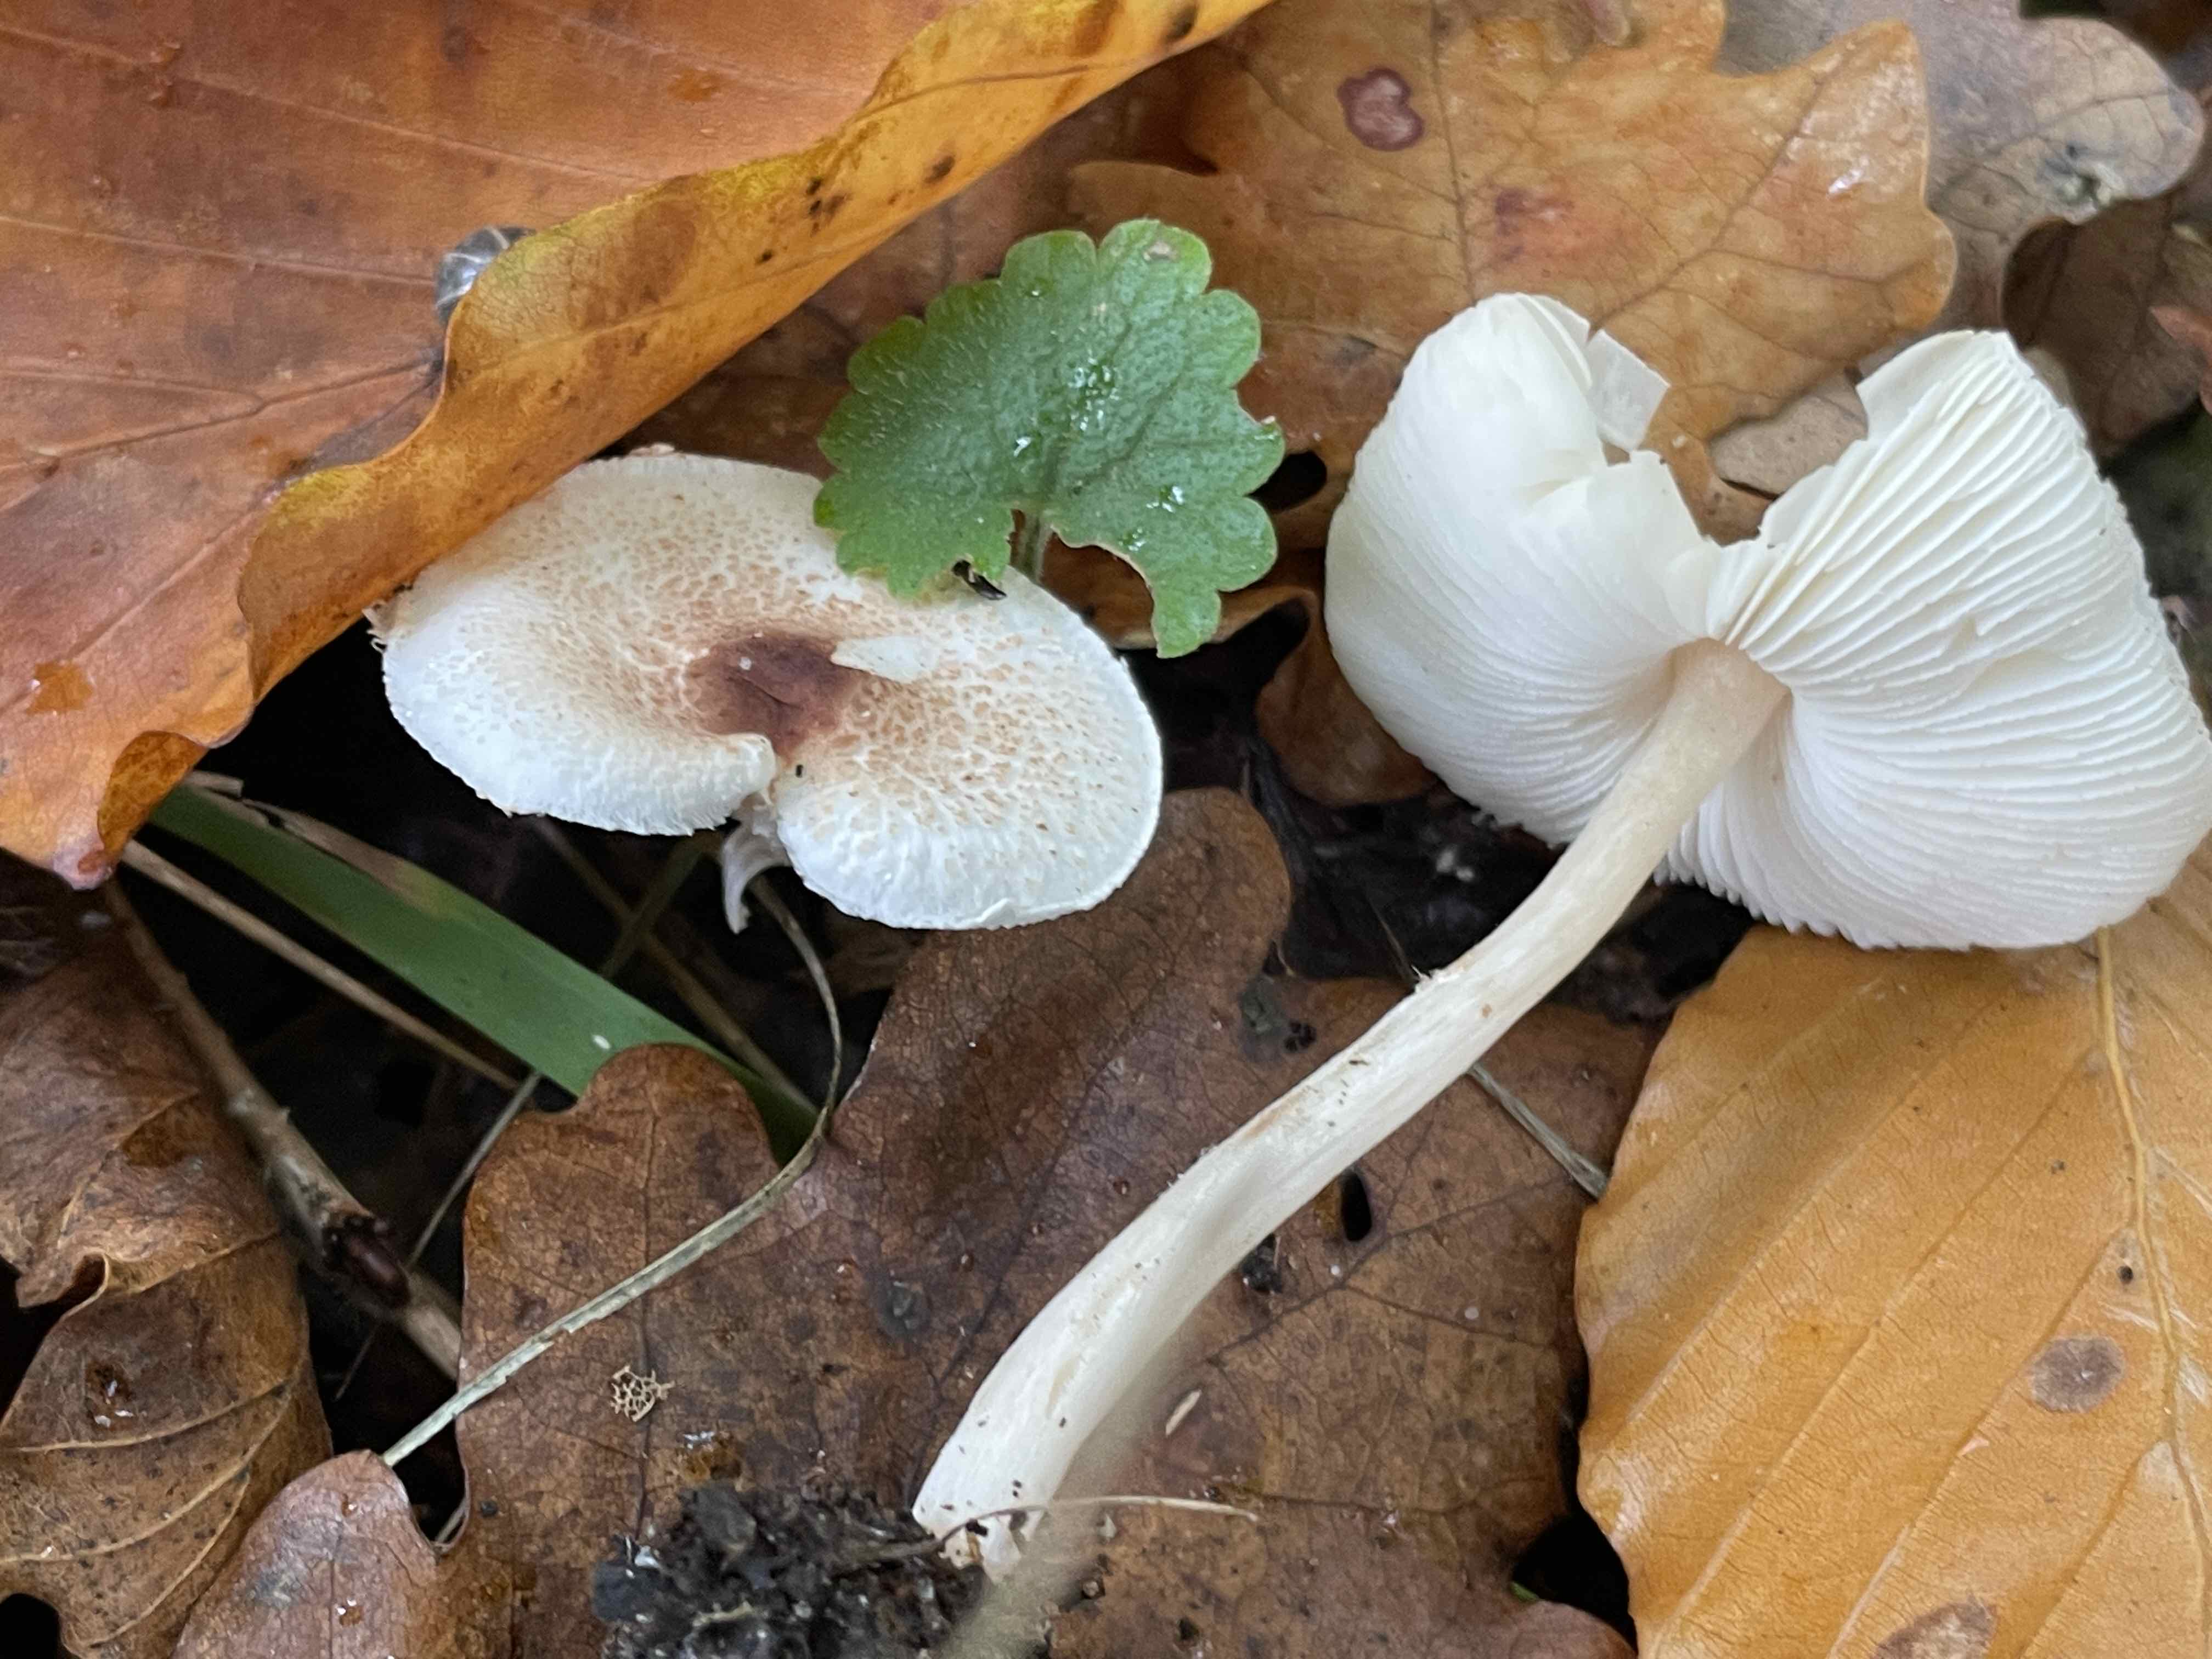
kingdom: Fungi
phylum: Basidiomycota
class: Agaricomycetes
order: Agaricales
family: Agaricaceae
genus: Lepiota
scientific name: Lepiota cristata
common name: stinkende parasolhat
